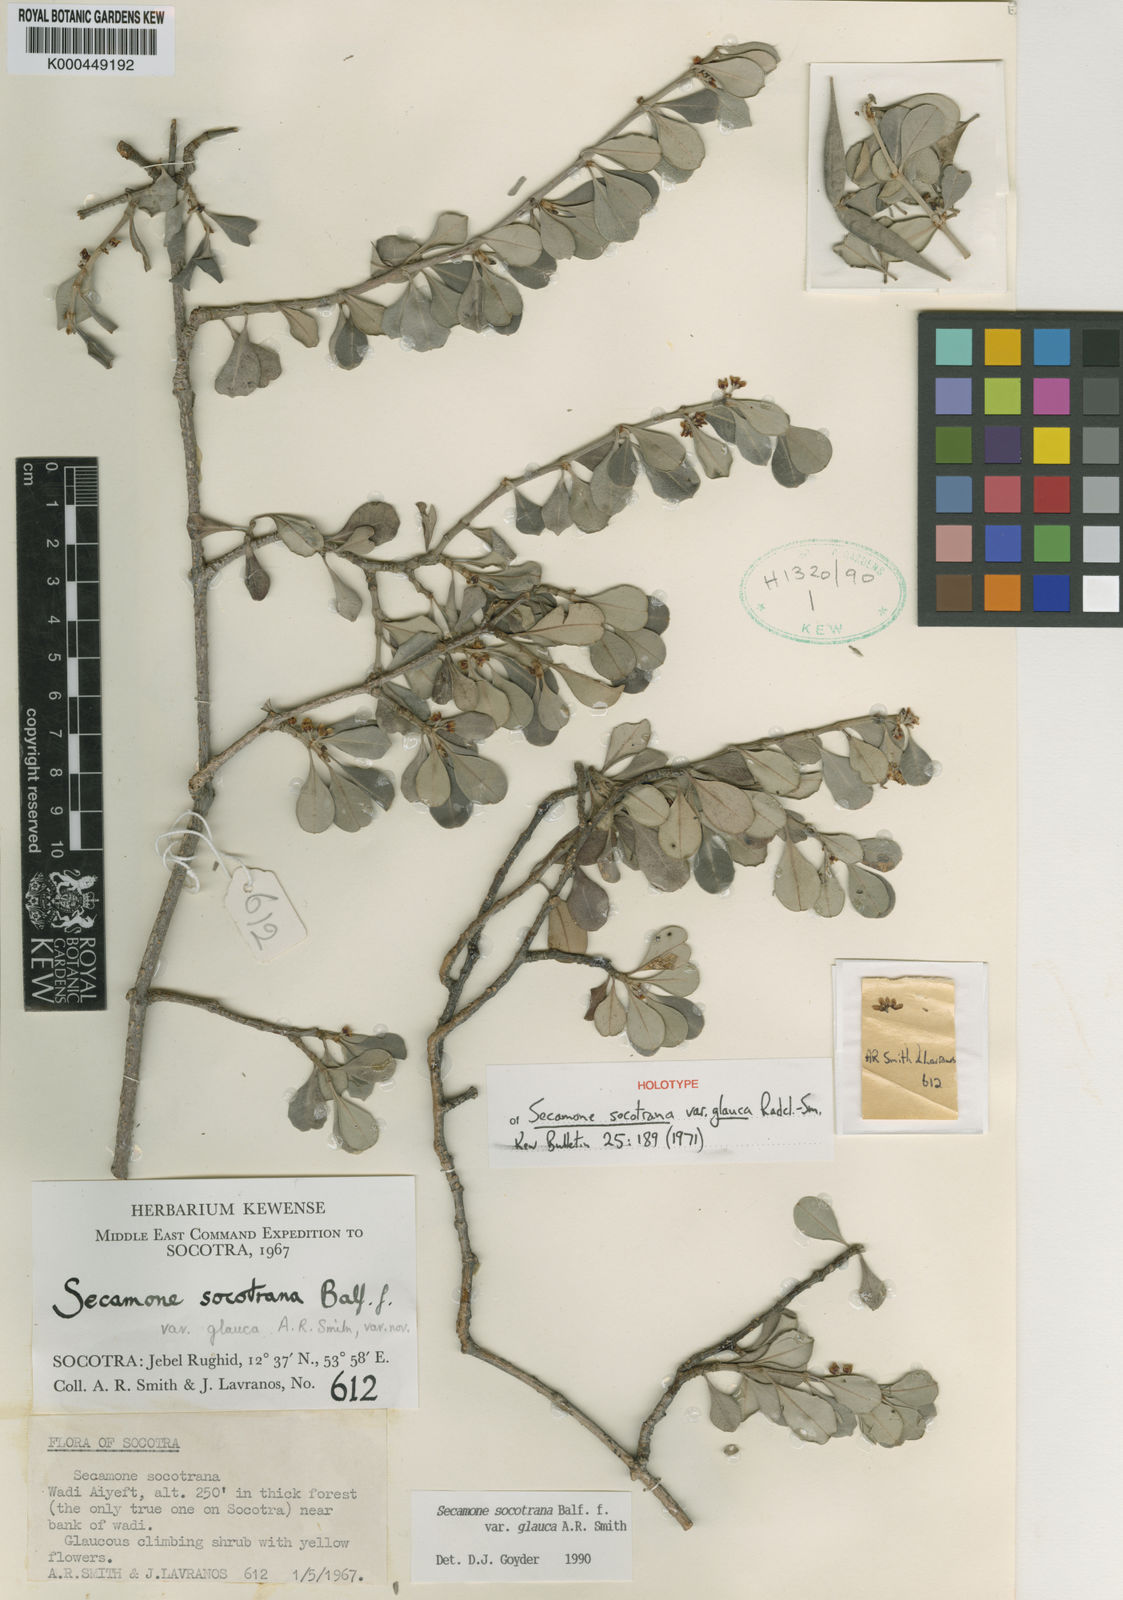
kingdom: Plantae
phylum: Tracheophyta
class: Magnoliopsida
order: Gentianales
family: Apocynaceae
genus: Secamone
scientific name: Secamone socotrana
